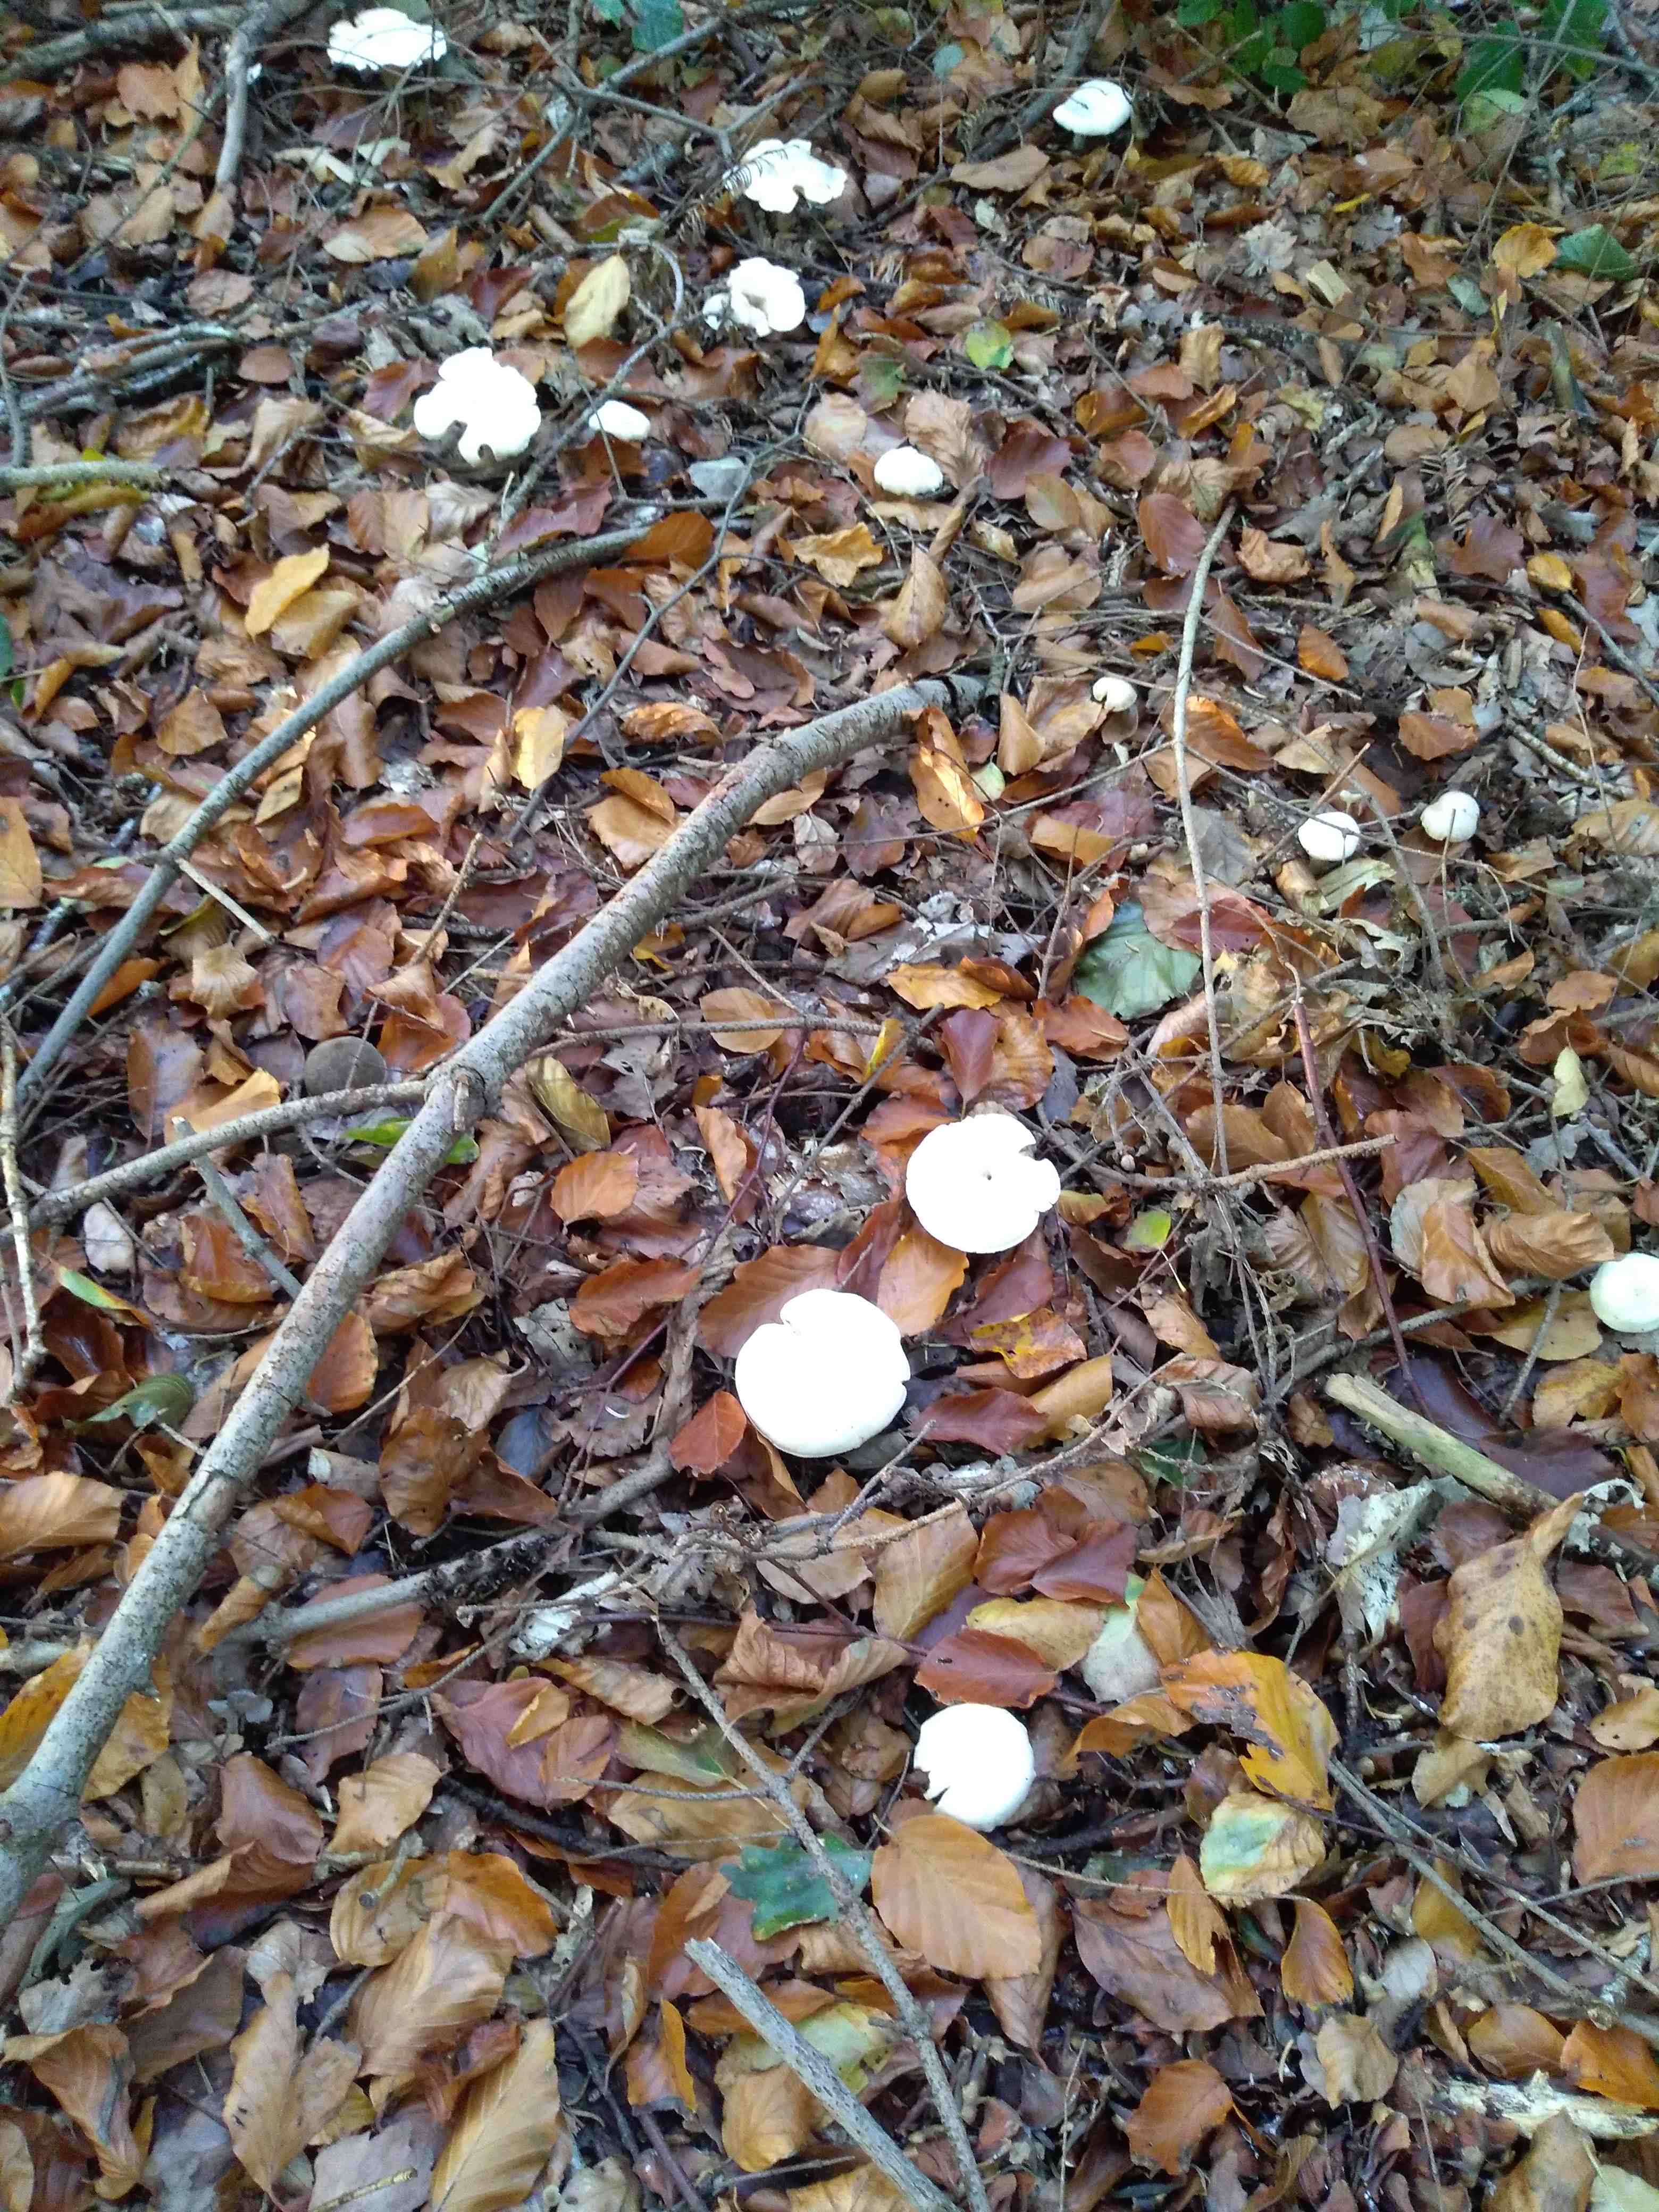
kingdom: Fungi
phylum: Basidiomycota
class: Agaricomycetes
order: Agaricales
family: Tricholomataceae
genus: Clitocybe
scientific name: Clitocybe phyllophila
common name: løv-tragthat
